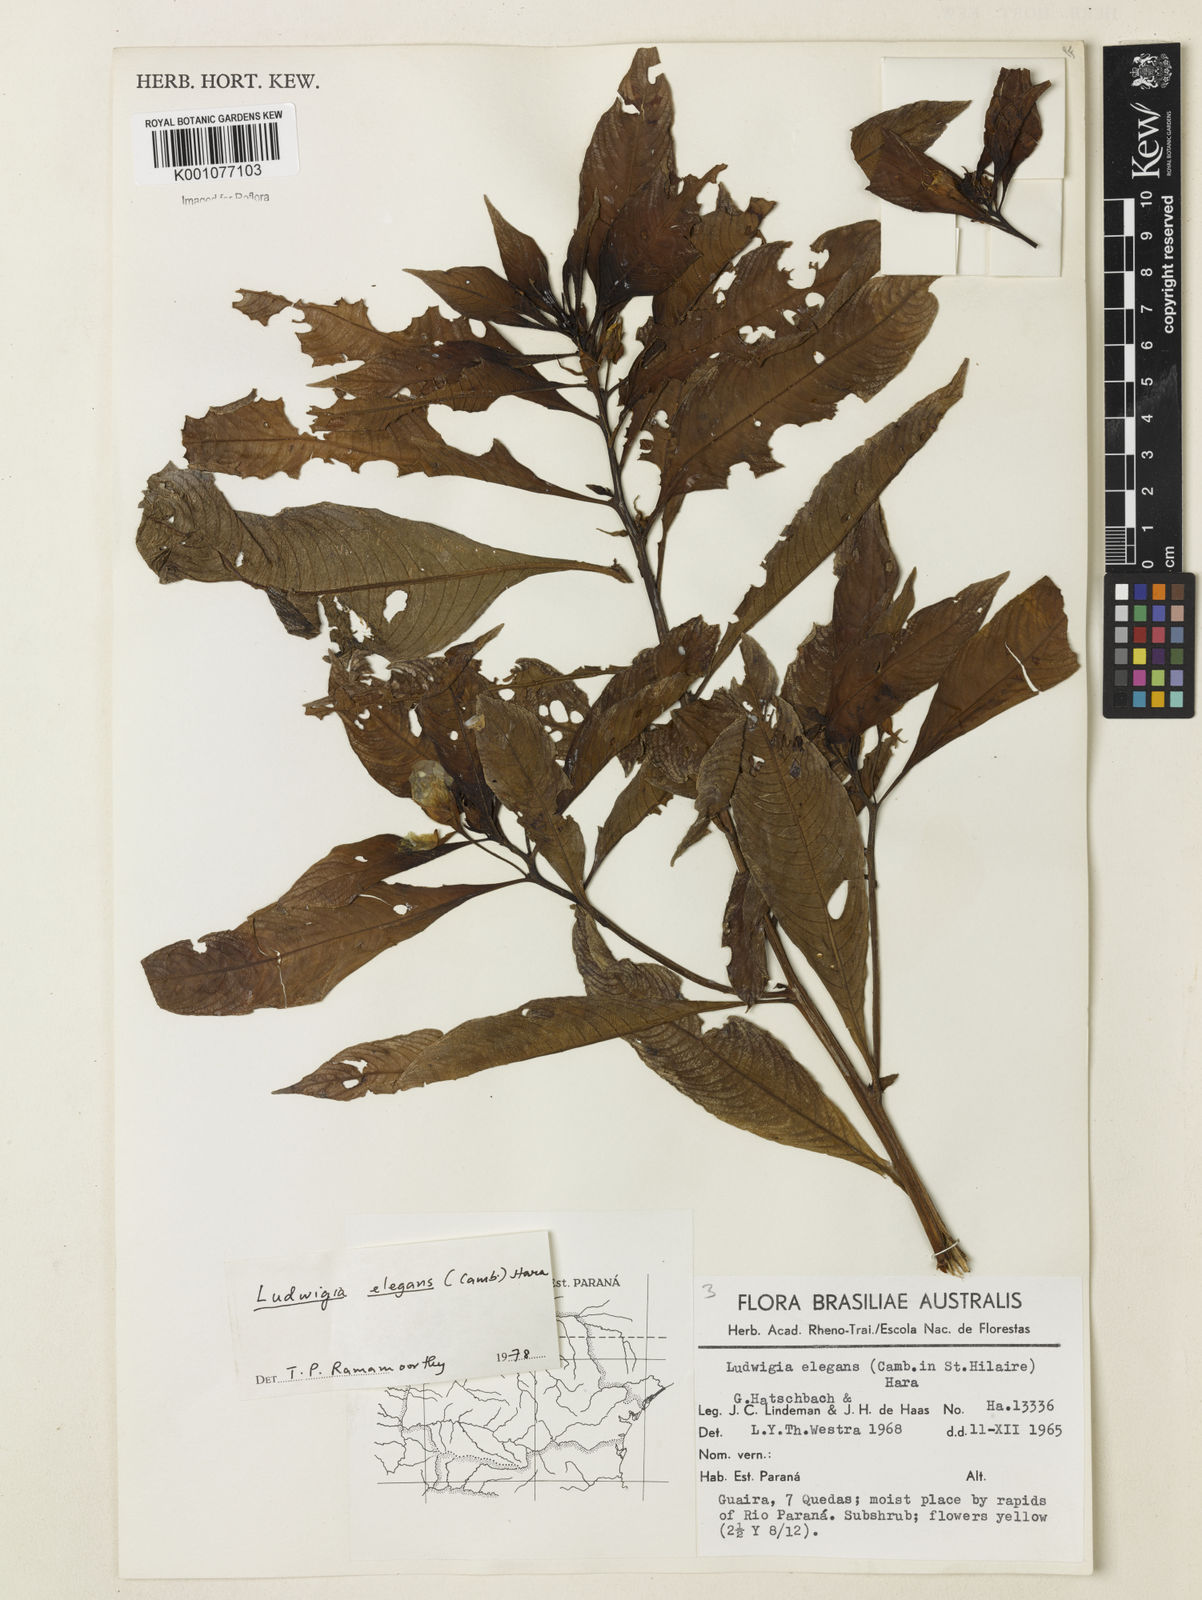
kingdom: Plantae
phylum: Tracheophyta
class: Magnoliopsida
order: Myrtales
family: Onagraceae
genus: Ludwigia
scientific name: Ludwigia elegans
